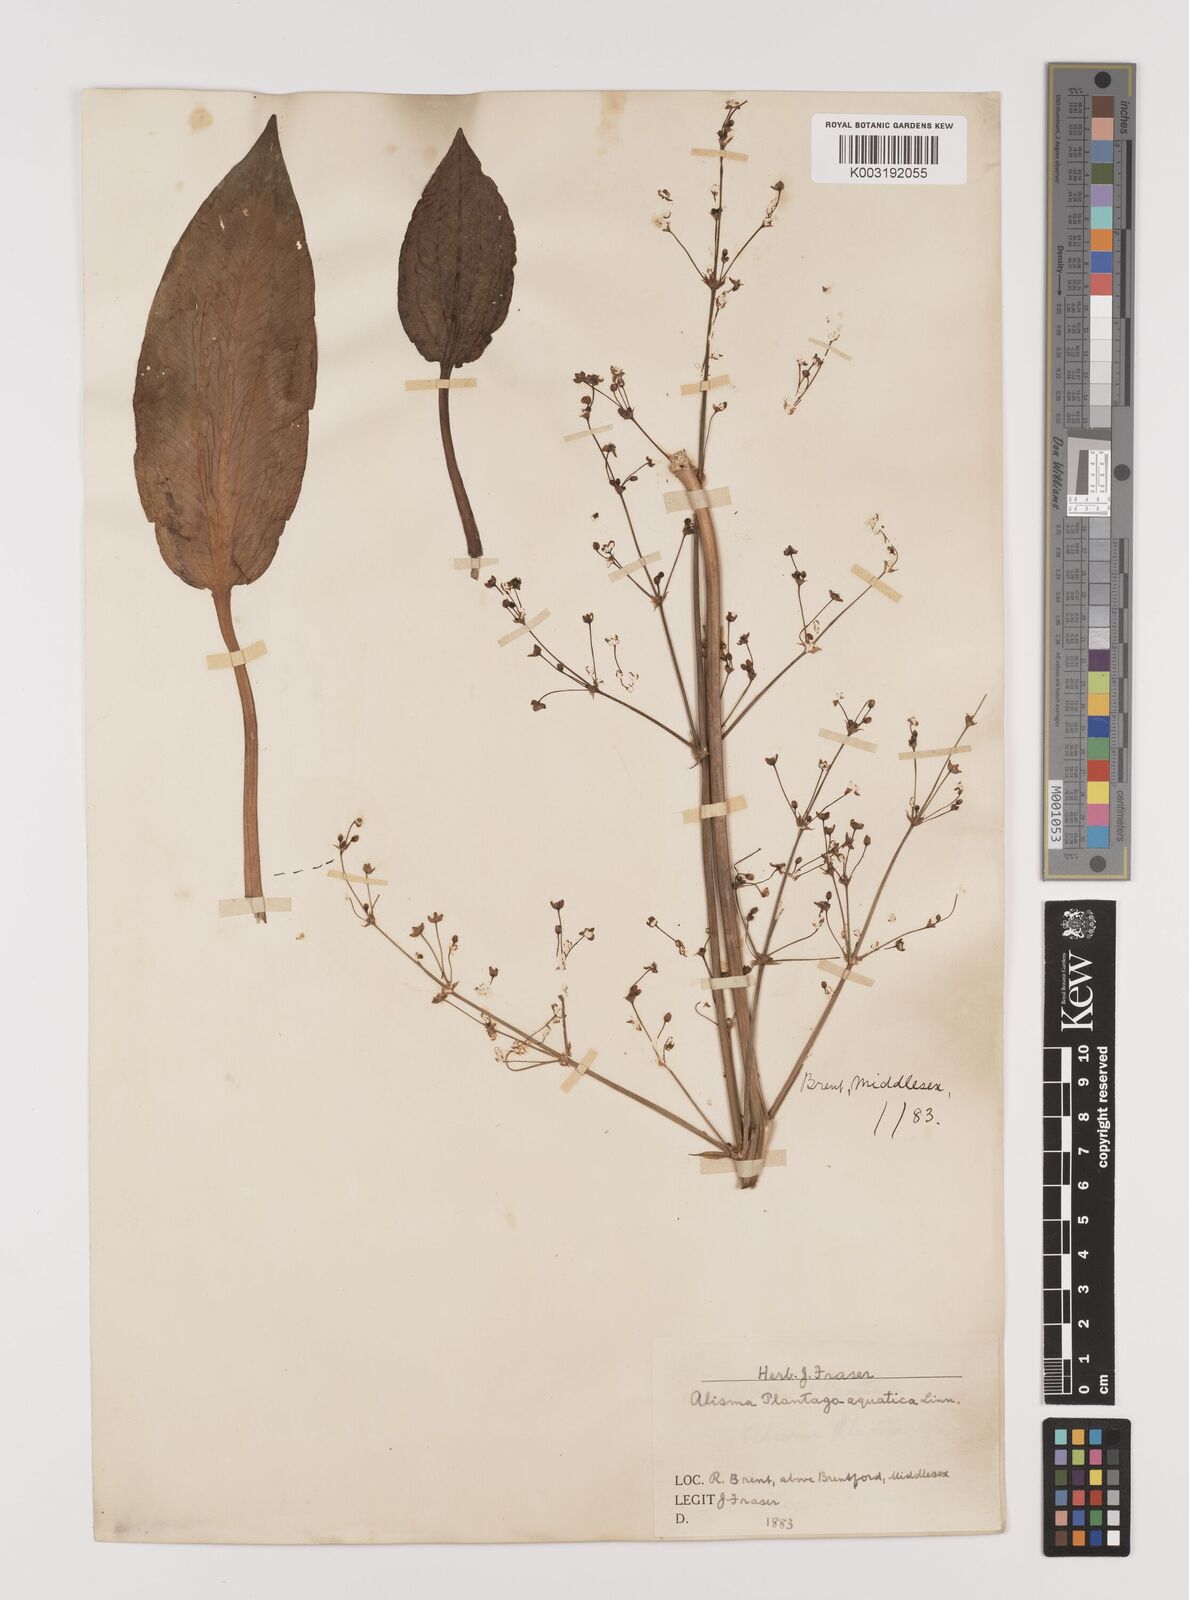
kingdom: Plantae
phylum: Tracheophyta
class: Liliopsida
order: Alismatales
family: Alismataceae
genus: Alisma
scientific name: Alisma plantago-aquatica
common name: Water-plantain
